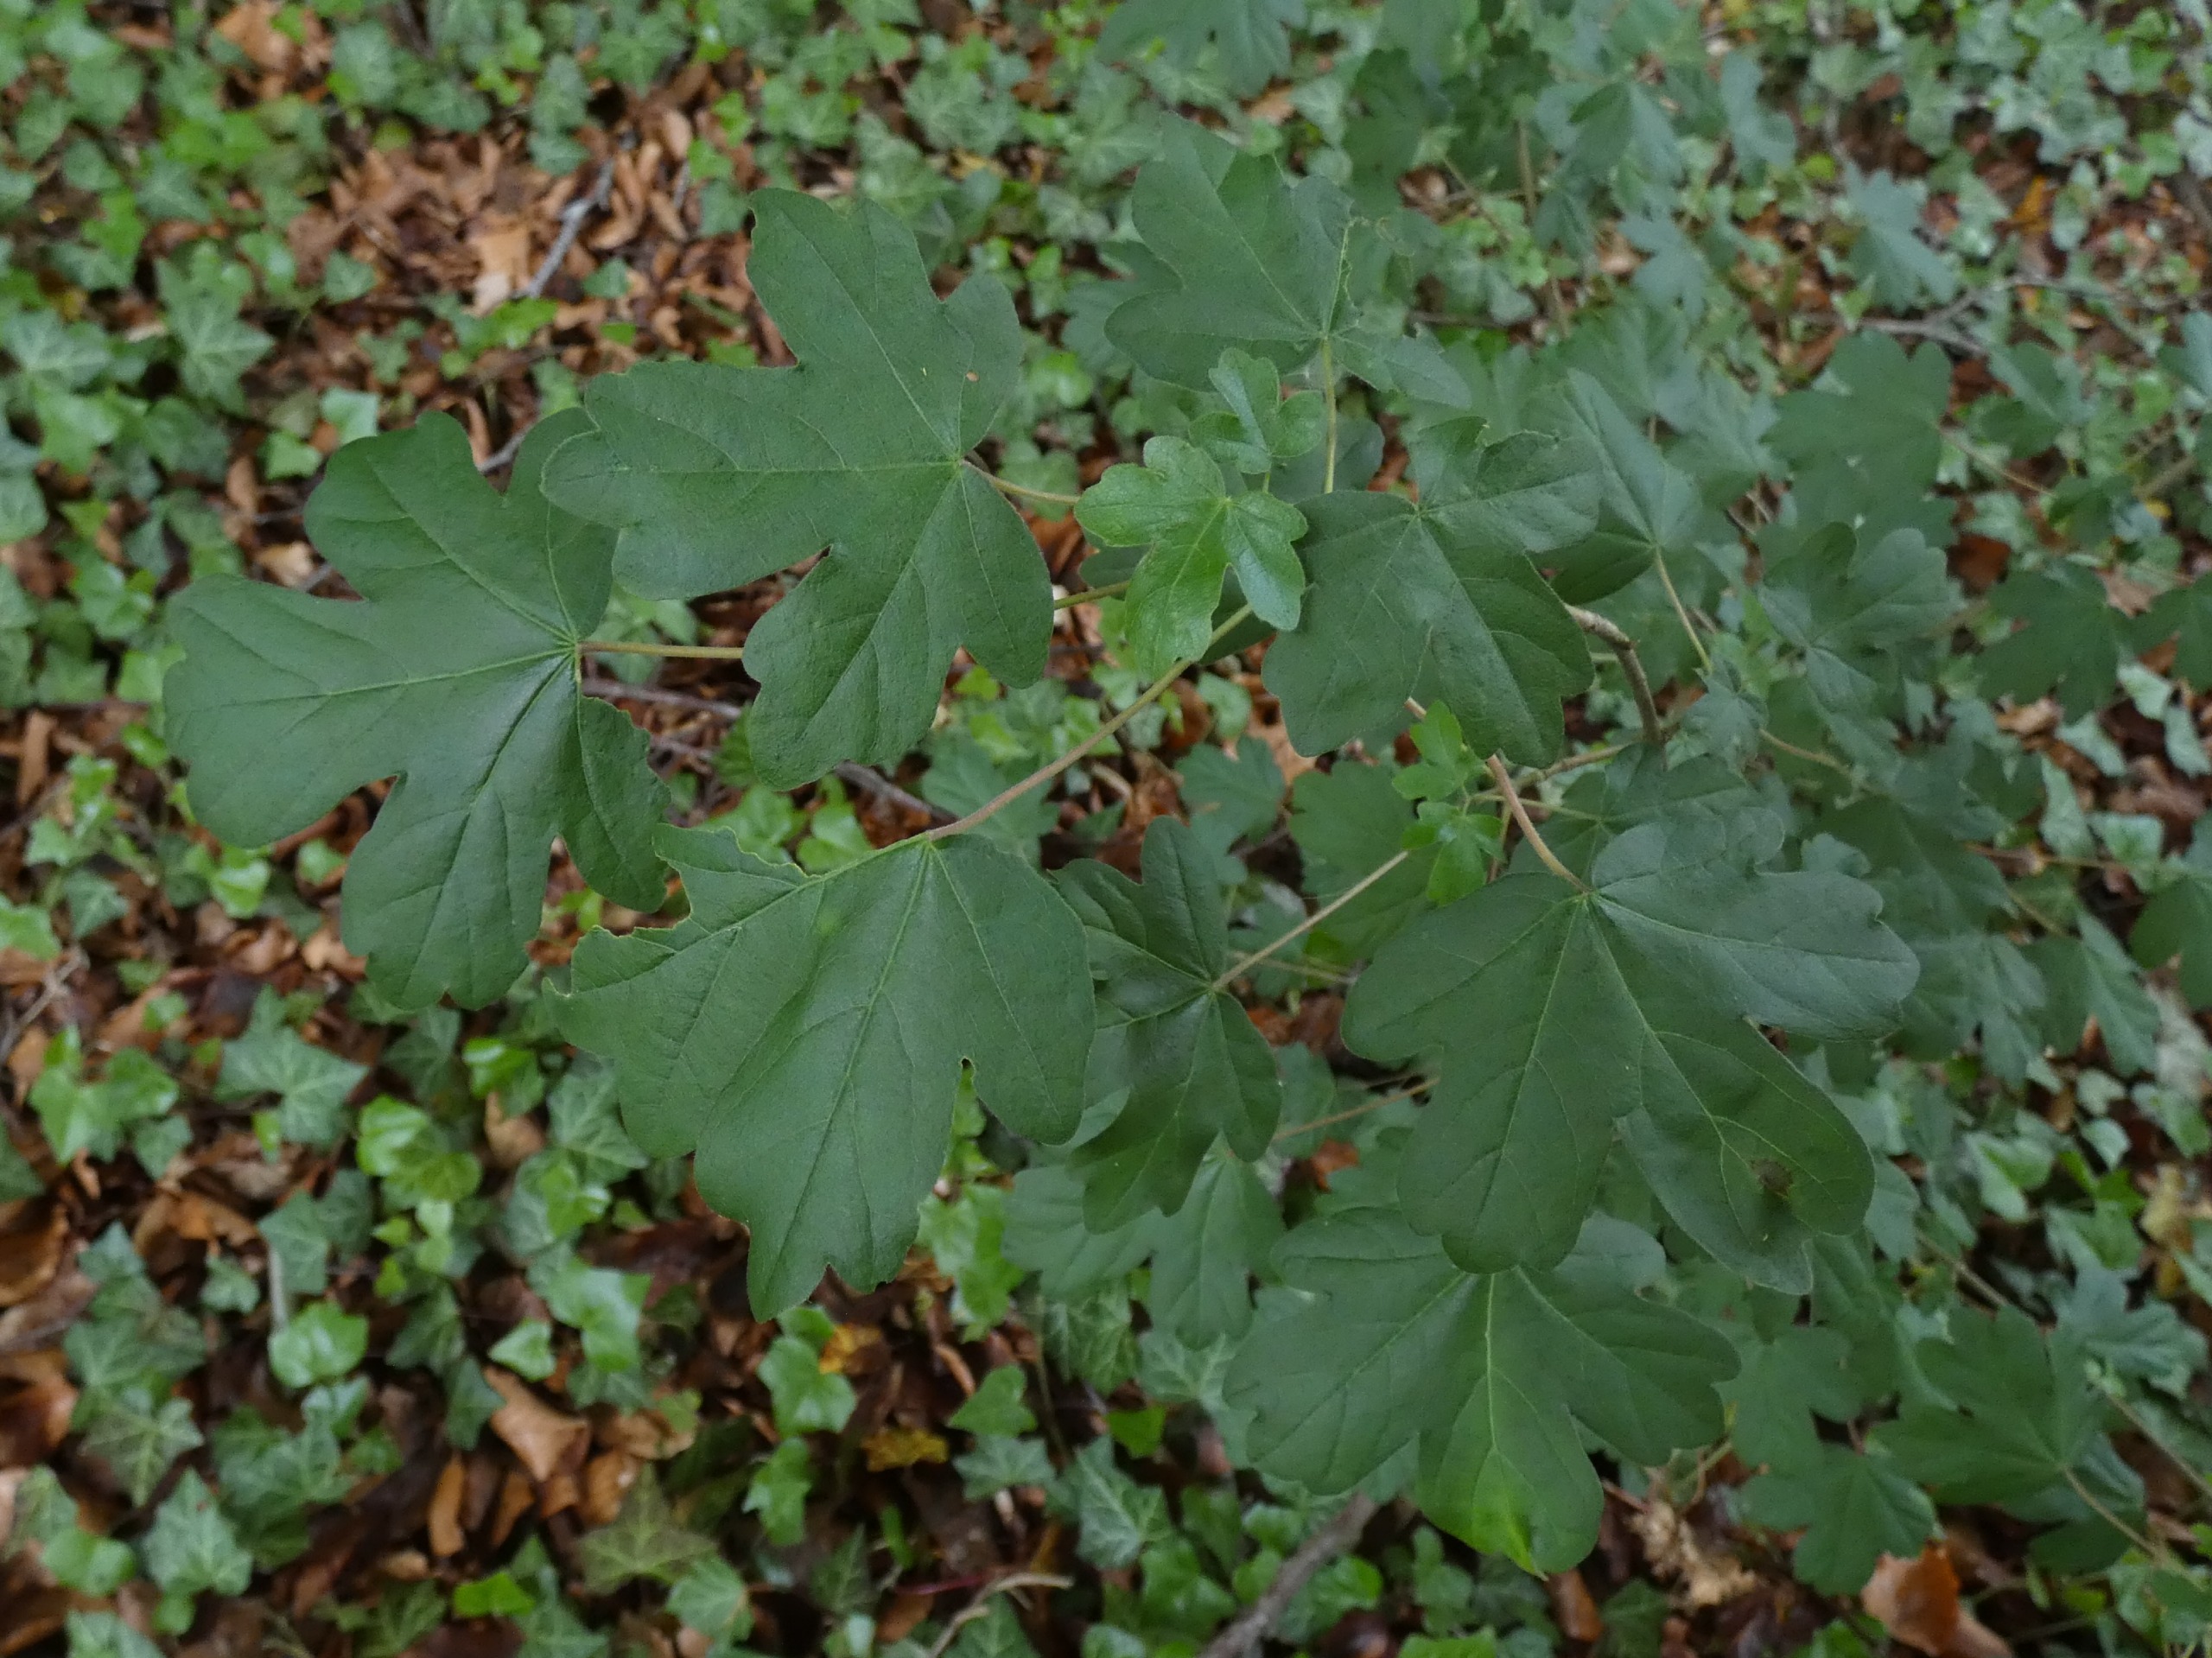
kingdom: Plantae
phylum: Tracheophyta
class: Magnoliopsida
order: Sapindales
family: Sapindaceae
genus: Acer
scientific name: Acer campestre
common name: Navr
